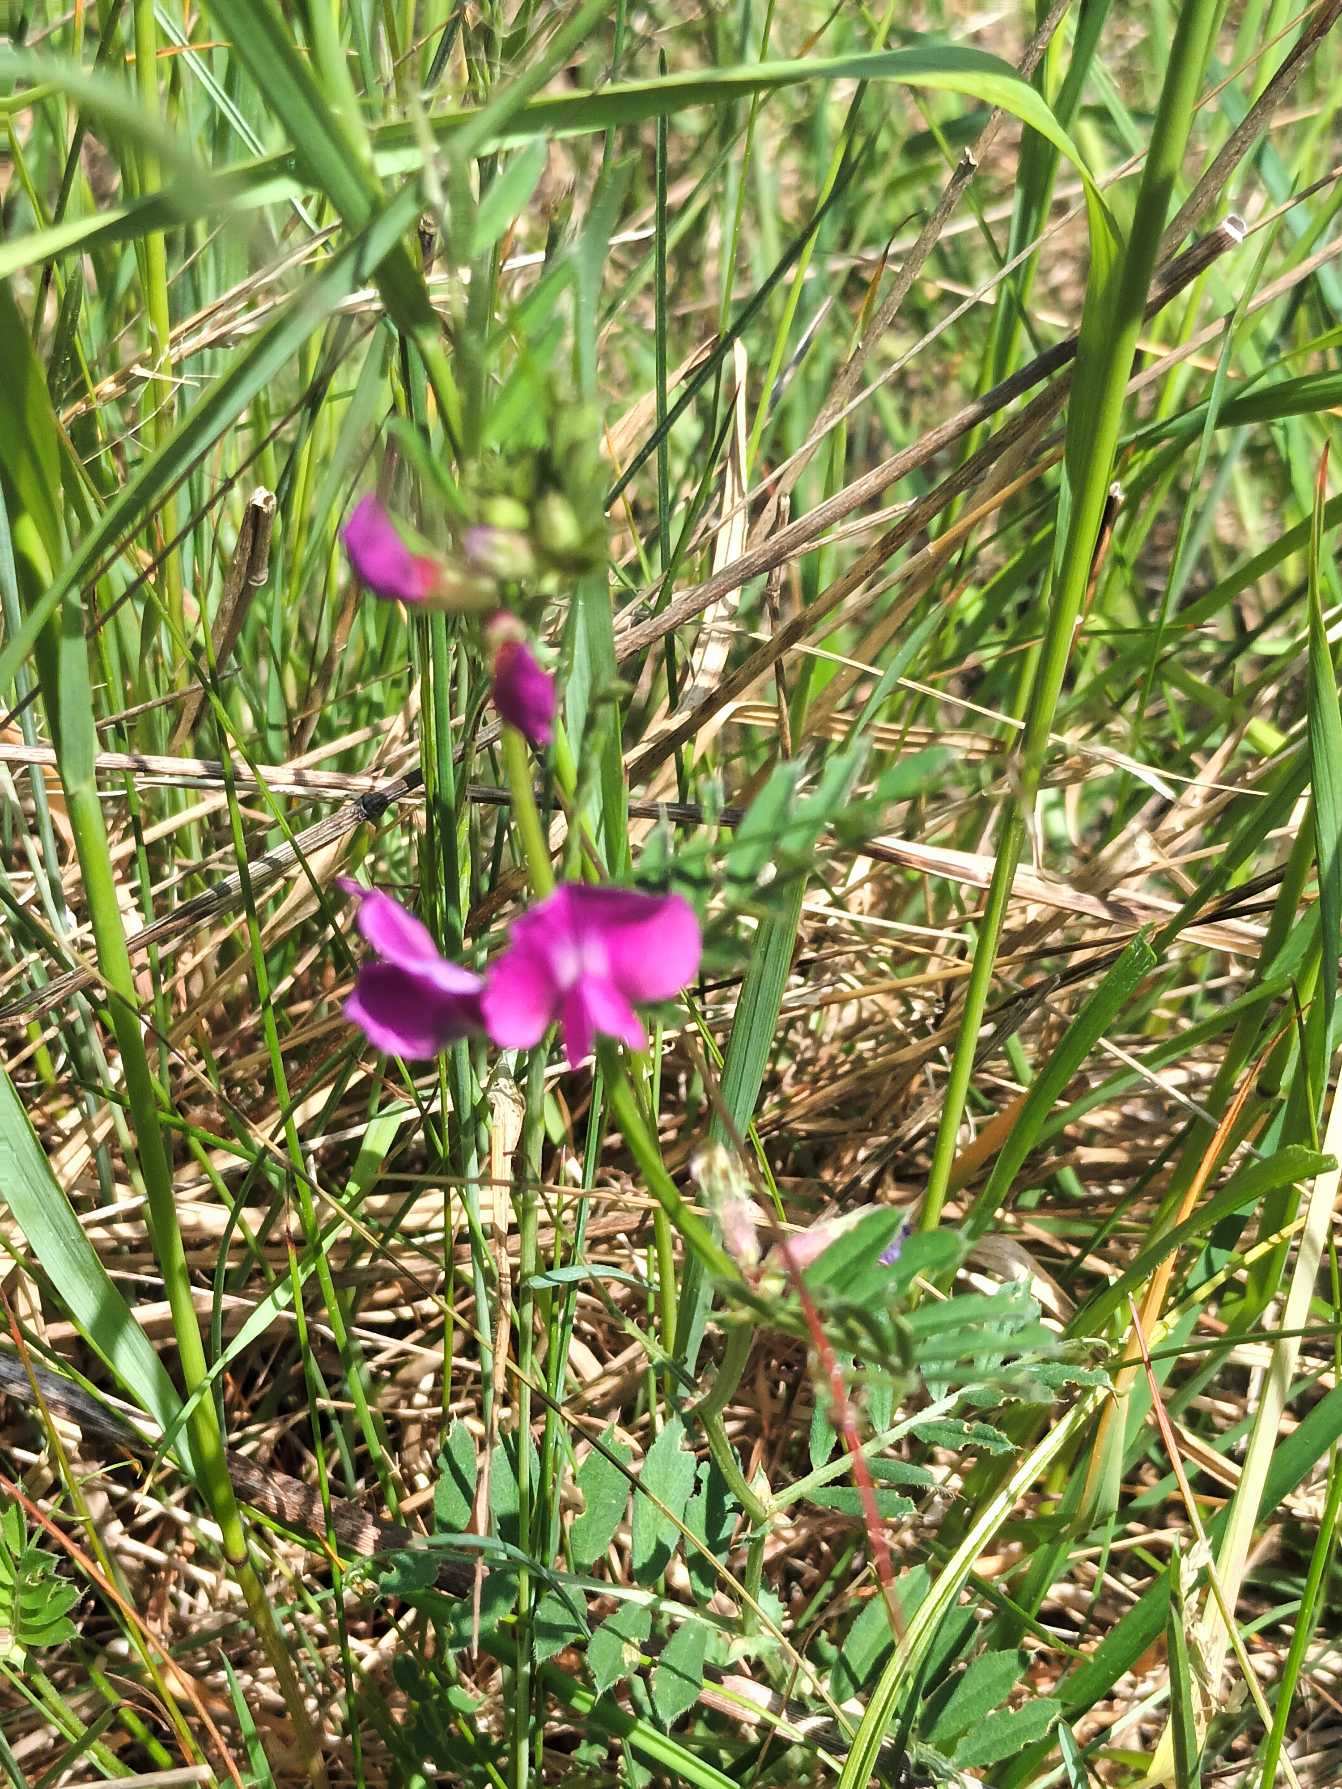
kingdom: Plantae
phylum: Tracheophyta
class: Magnoliopsida
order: Fabales
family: Fabaceae
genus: Vicia
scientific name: Vicia sativa
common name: Foder-vikke
